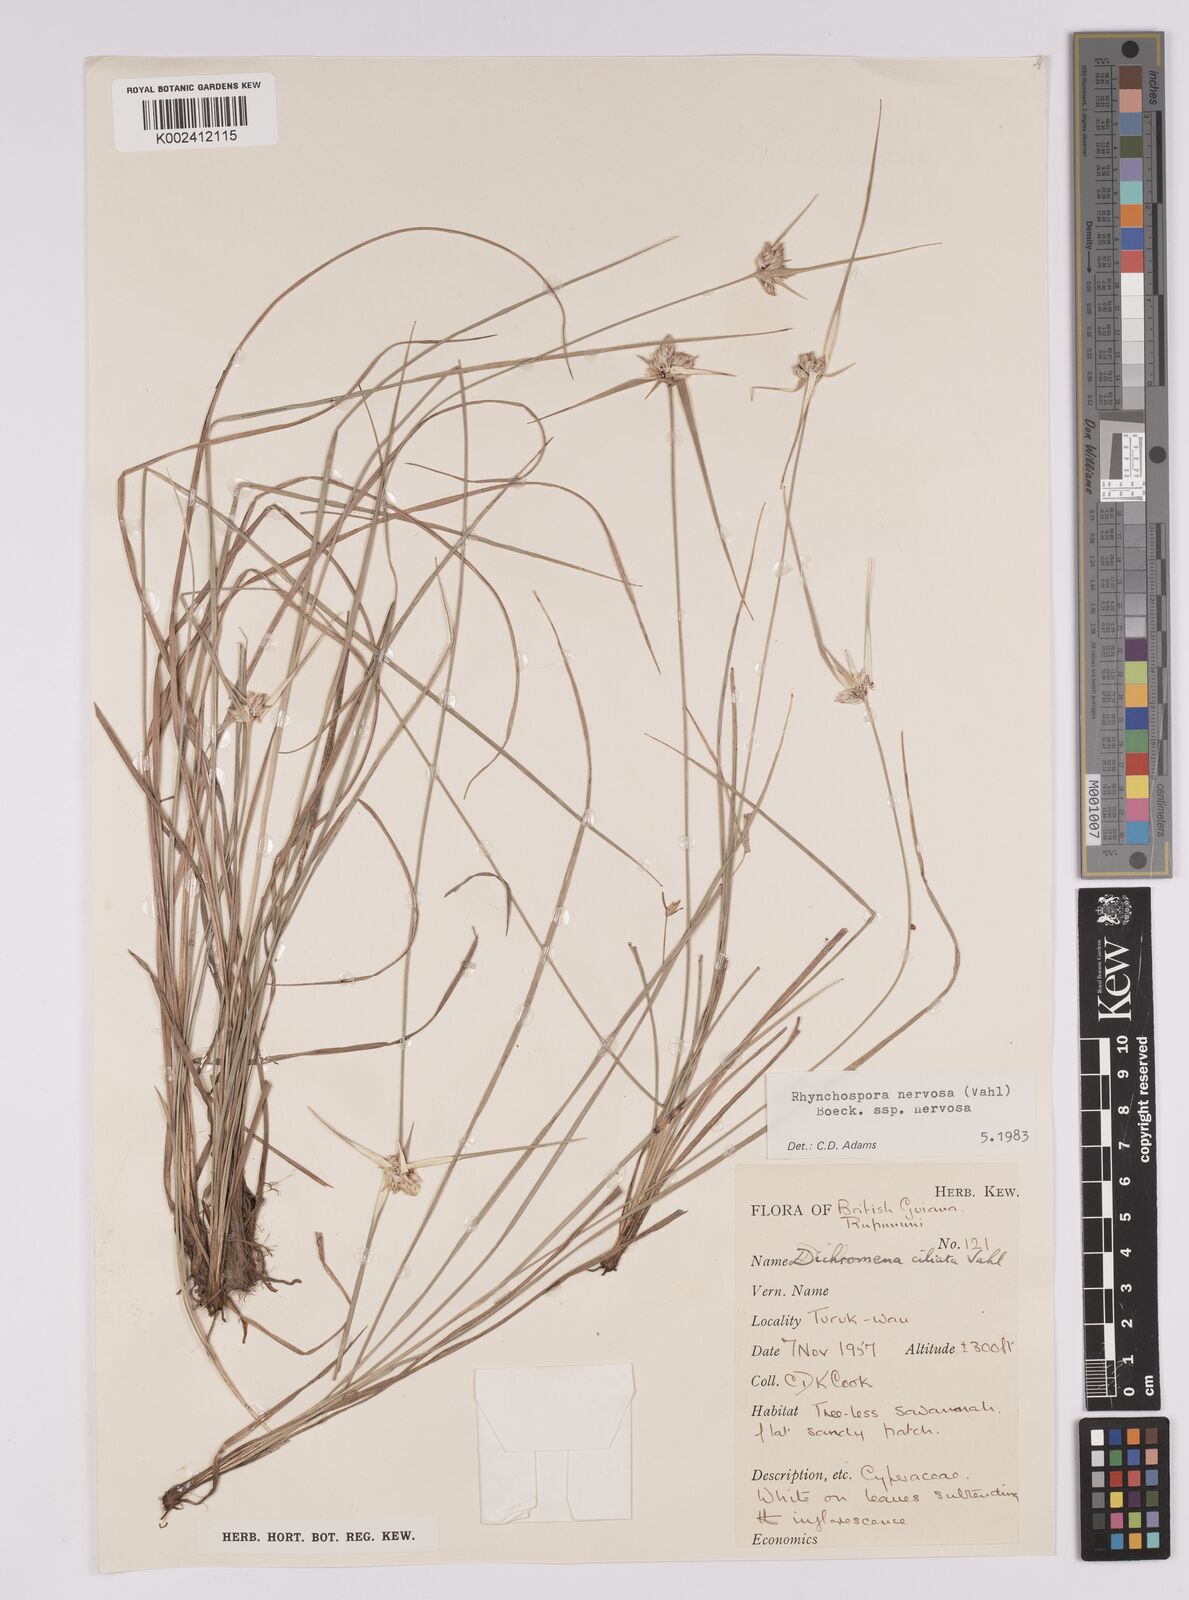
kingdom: Plantae
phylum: Tracheophyta
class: Liliopsida
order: Poales
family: Cyperaceae
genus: Rhynchospora
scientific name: Rhynchospora nervosa
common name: Star sedge
